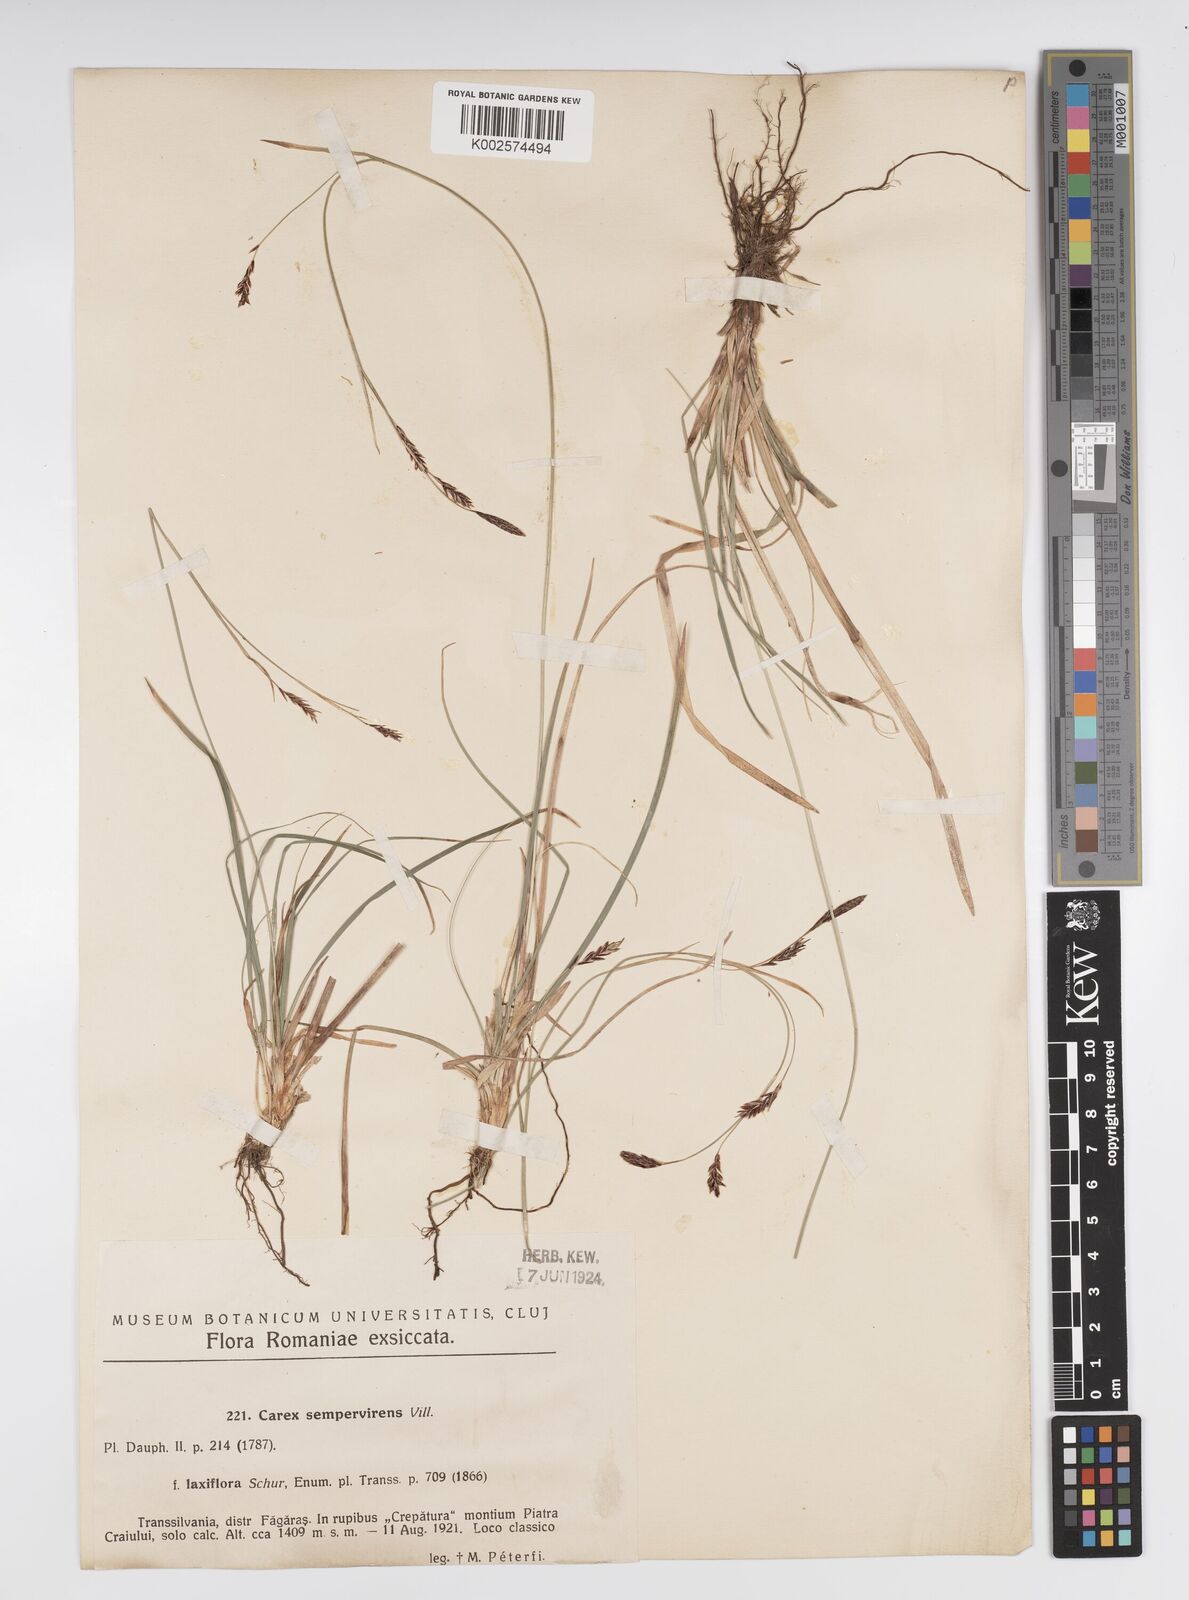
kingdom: Plantae
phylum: Tracheophyta
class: Liliopsida
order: Poales
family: Cyperaceae
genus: Carex
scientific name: Carex sempervirens
